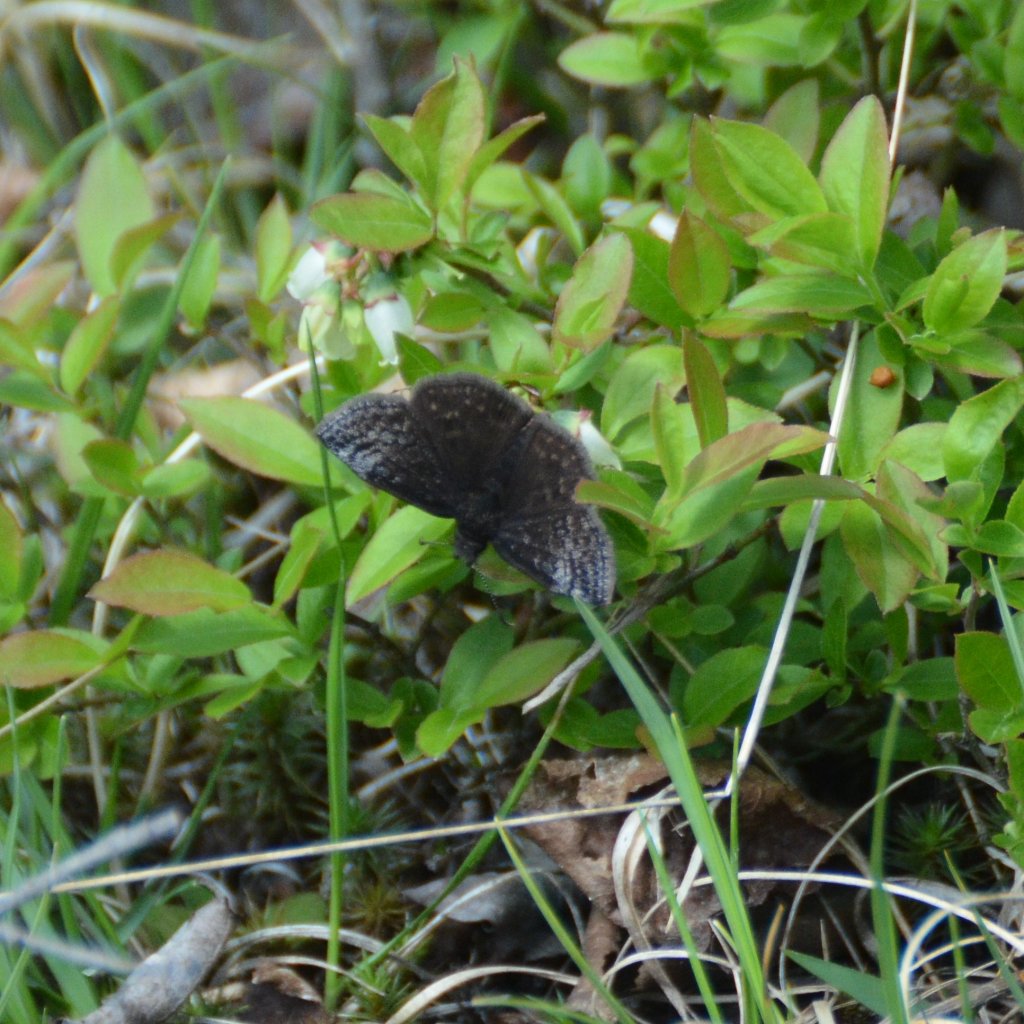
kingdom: Animalia
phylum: Arthropoda
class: Insecta
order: Lepidoptera
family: Hesperiidae
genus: Erynnis
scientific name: Erynnis icelus
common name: Dreamy Duskywing
